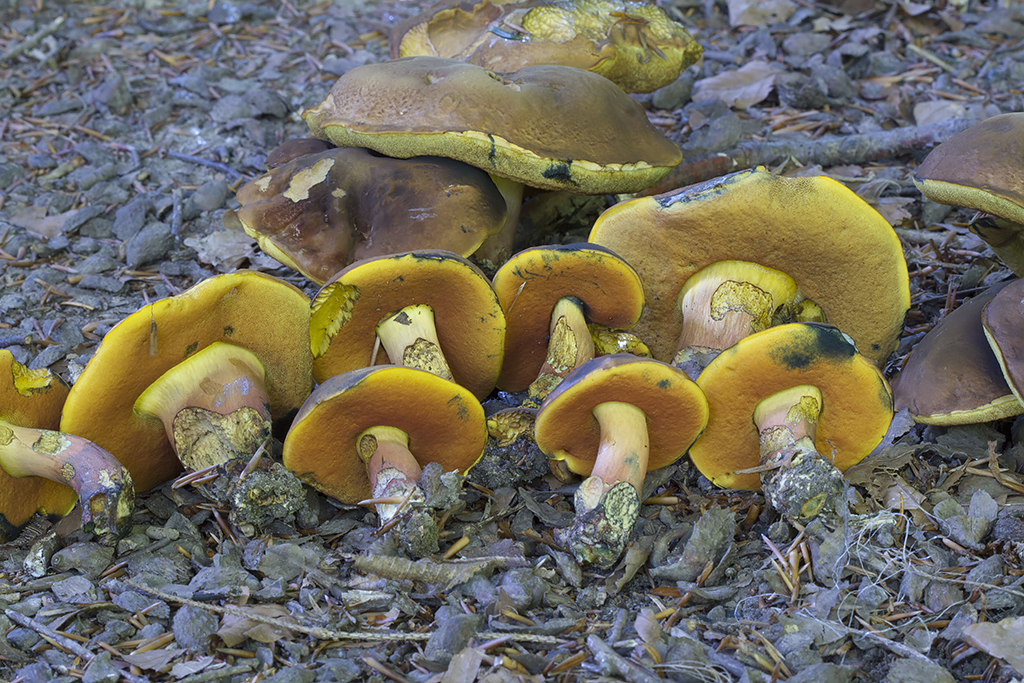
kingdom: Fungi
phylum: Basidiomycota
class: Agaricomycetes
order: Boletales
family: Boletaceae
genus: Neoboletus
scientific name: Neoboletus xanthopus
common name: finprikket indigorørhat
